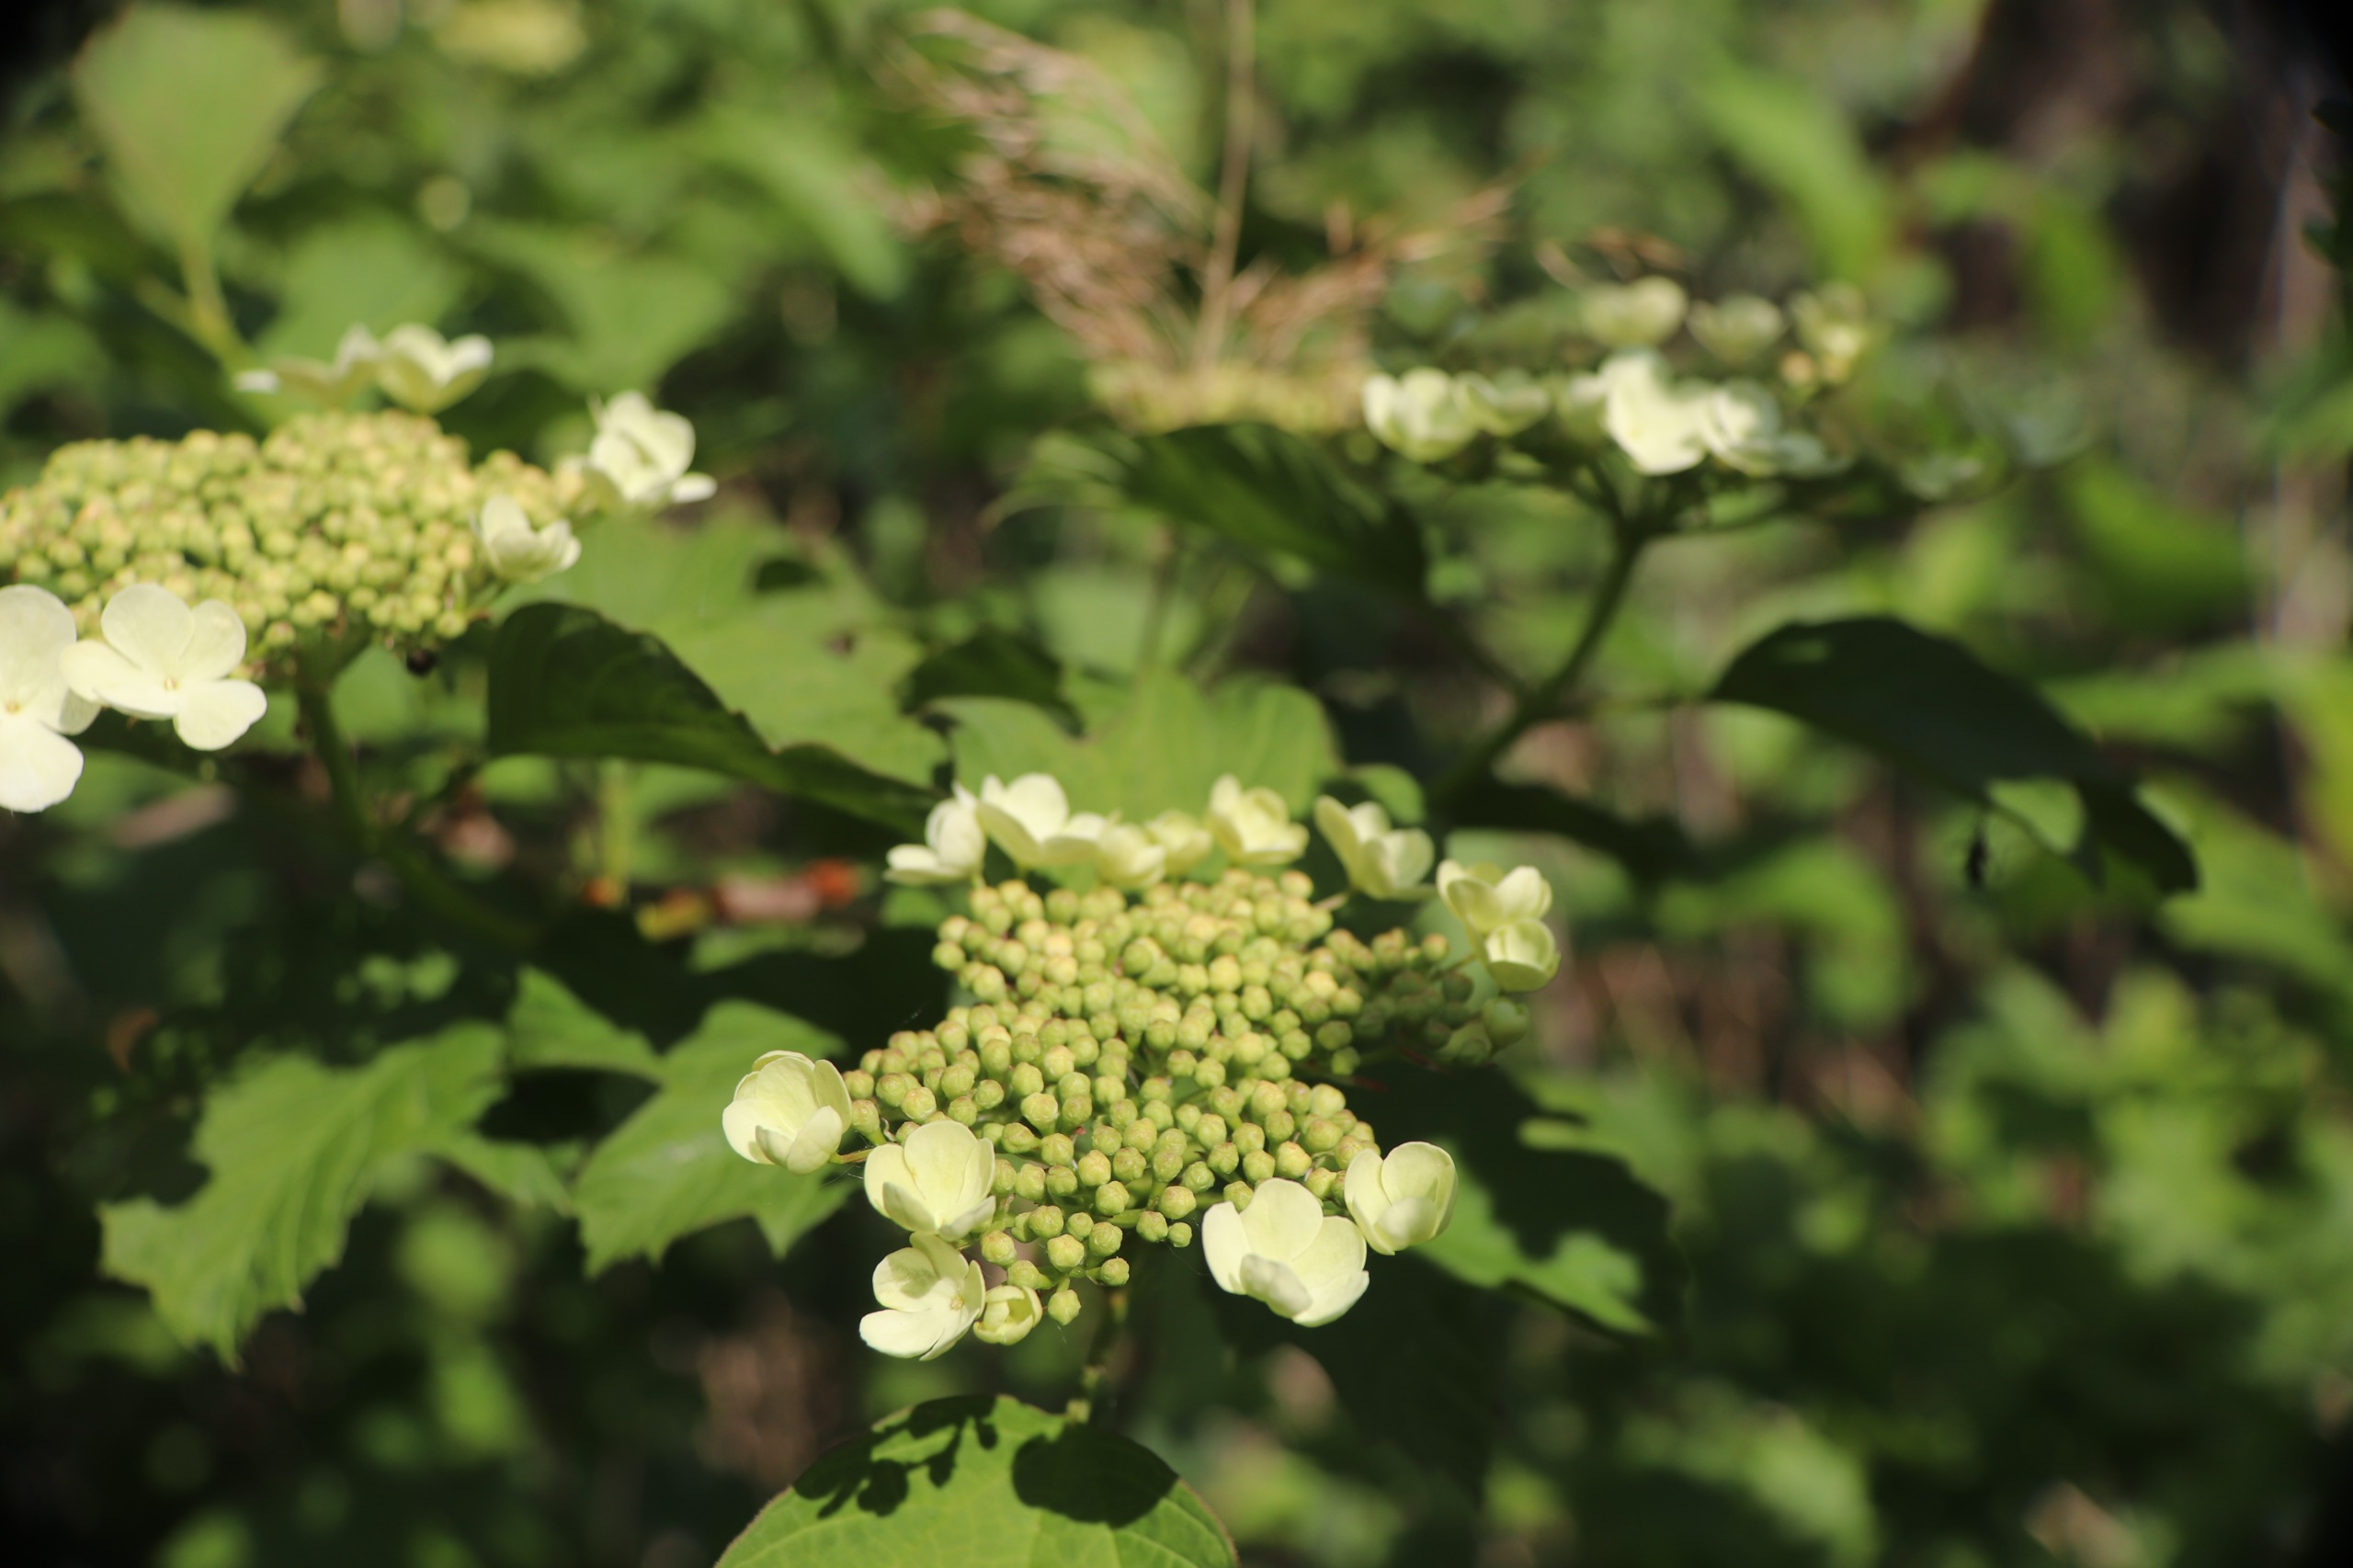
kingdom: Plantae
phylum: Tracheophyta
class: Magnoliopsida
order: Dipsacales
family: Viburnaceae
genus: Viburnum
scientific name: Viburnum opulus
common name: Kvalkved
